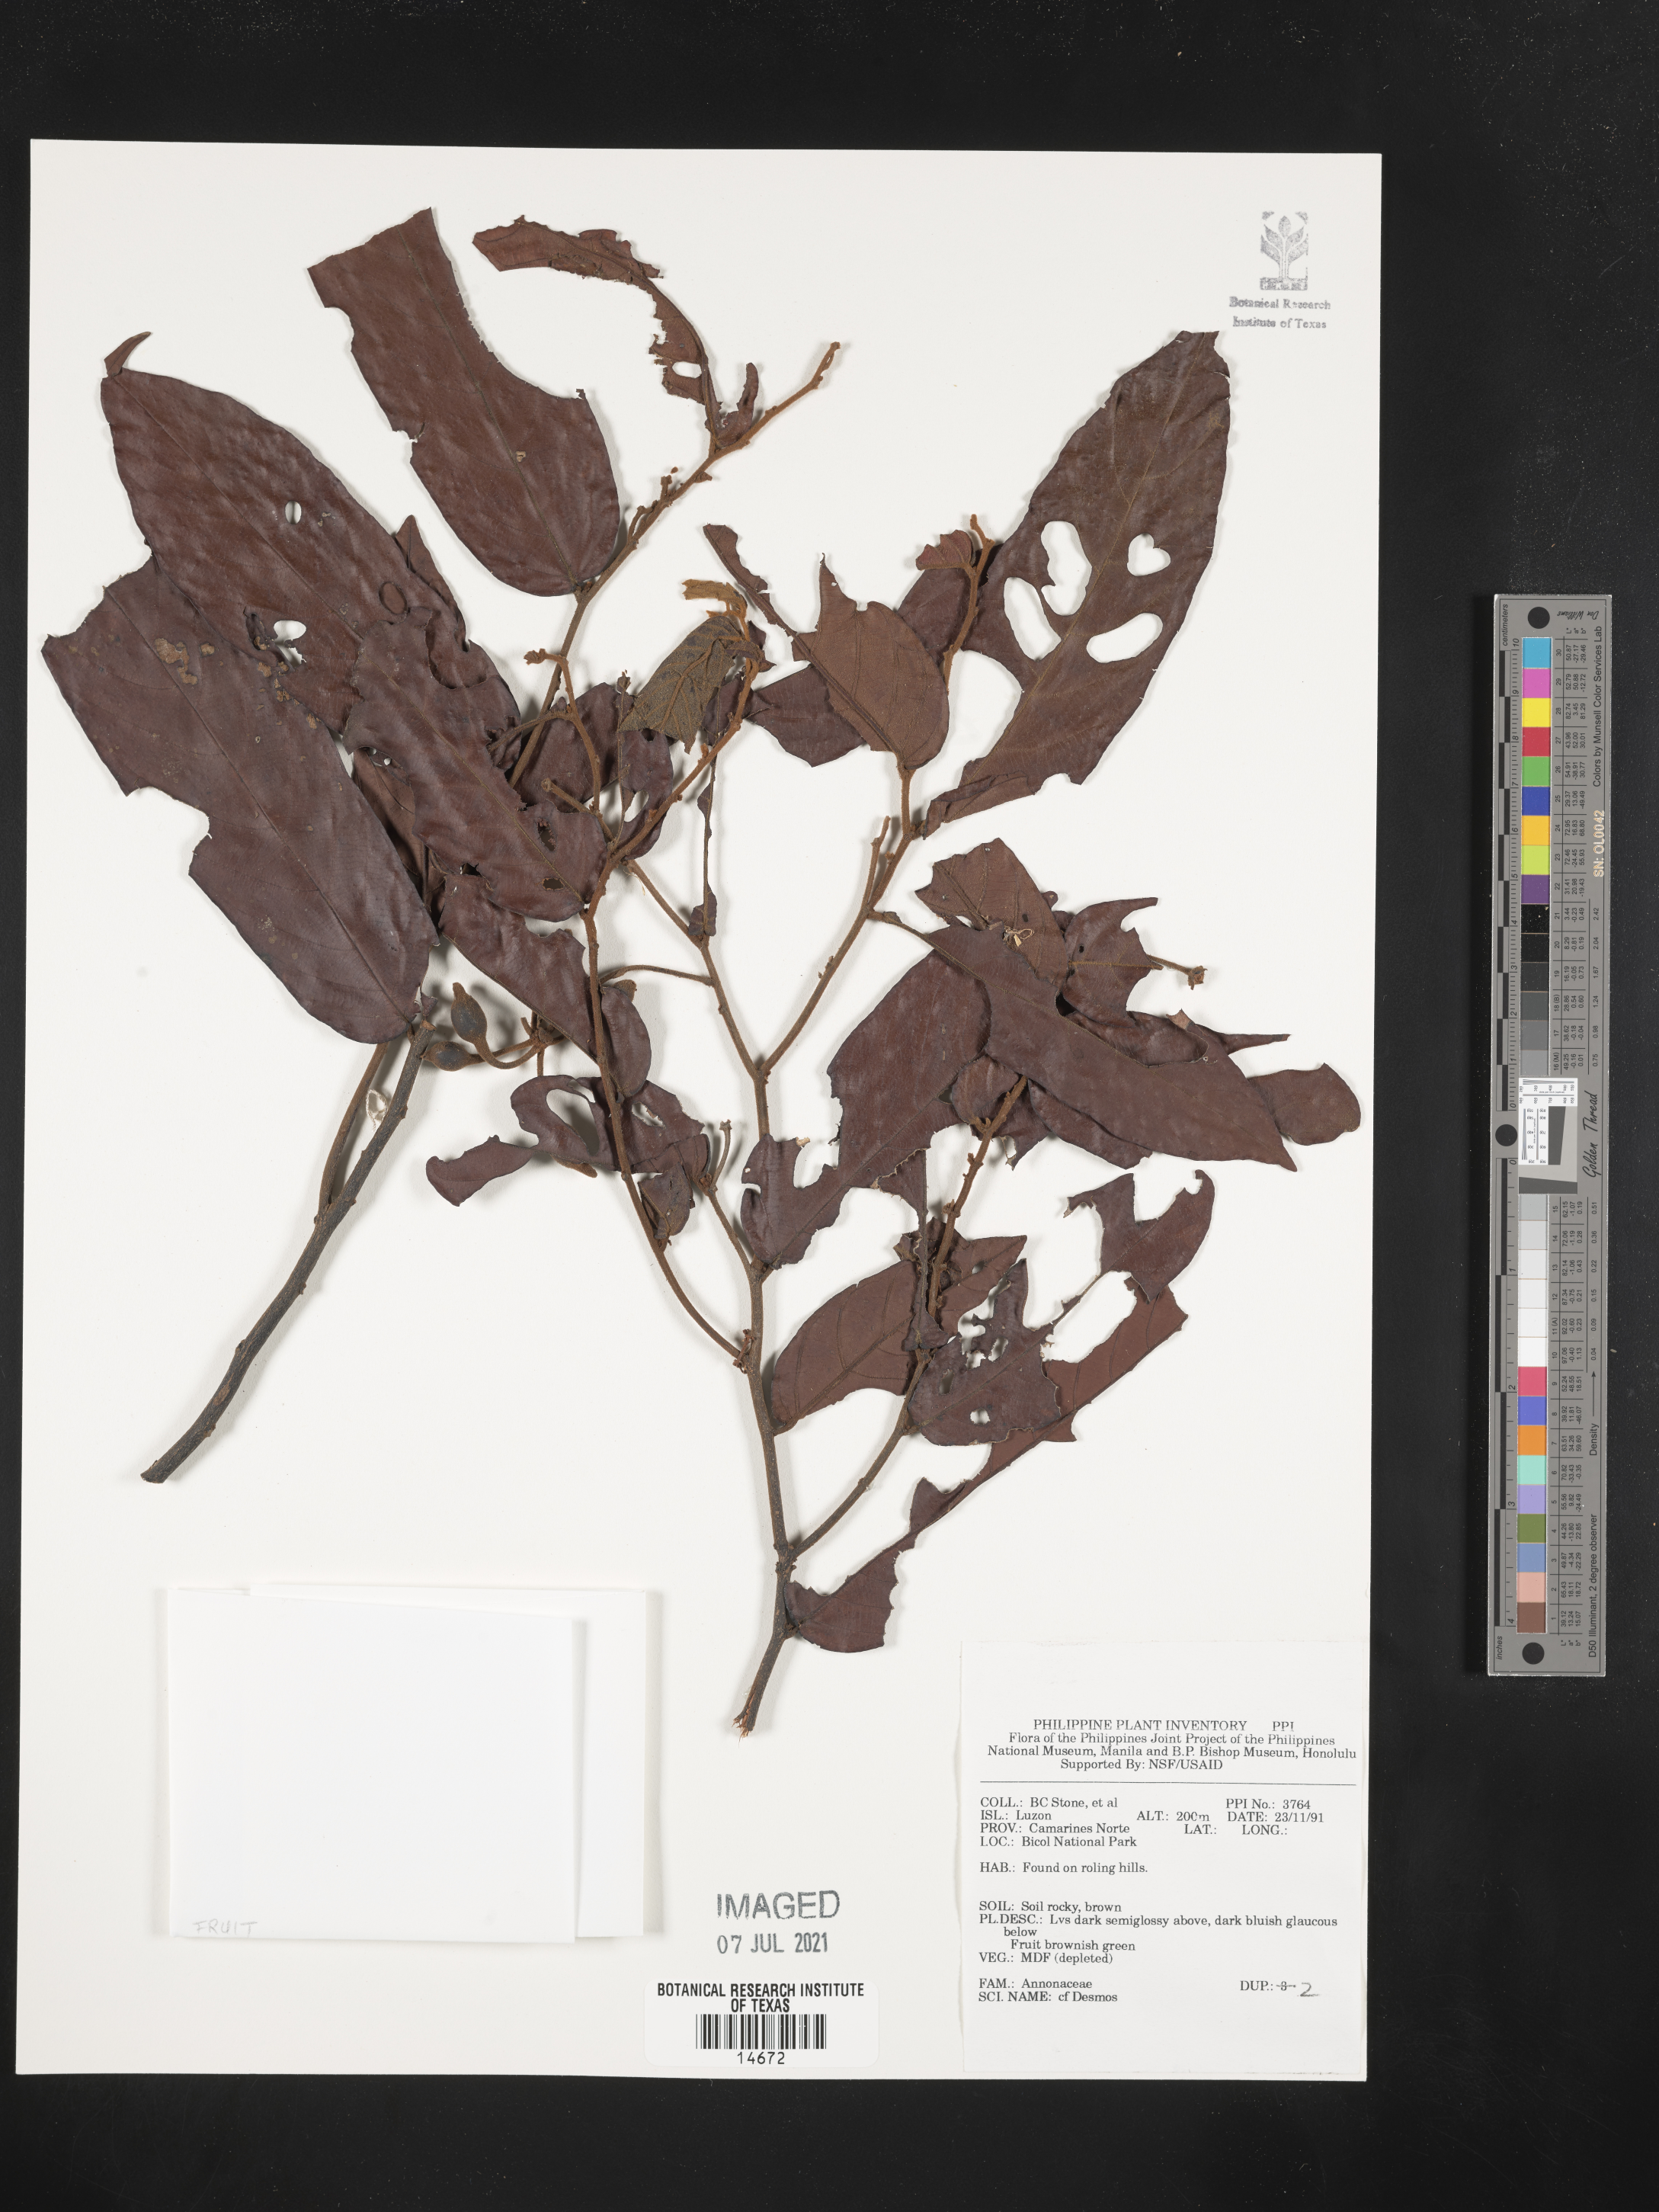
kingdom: Plantae
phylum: Tracheophyta
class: Magnoliopsida
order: Magnoliales
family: Annonaceae
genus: Desmos
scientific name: Desmos
